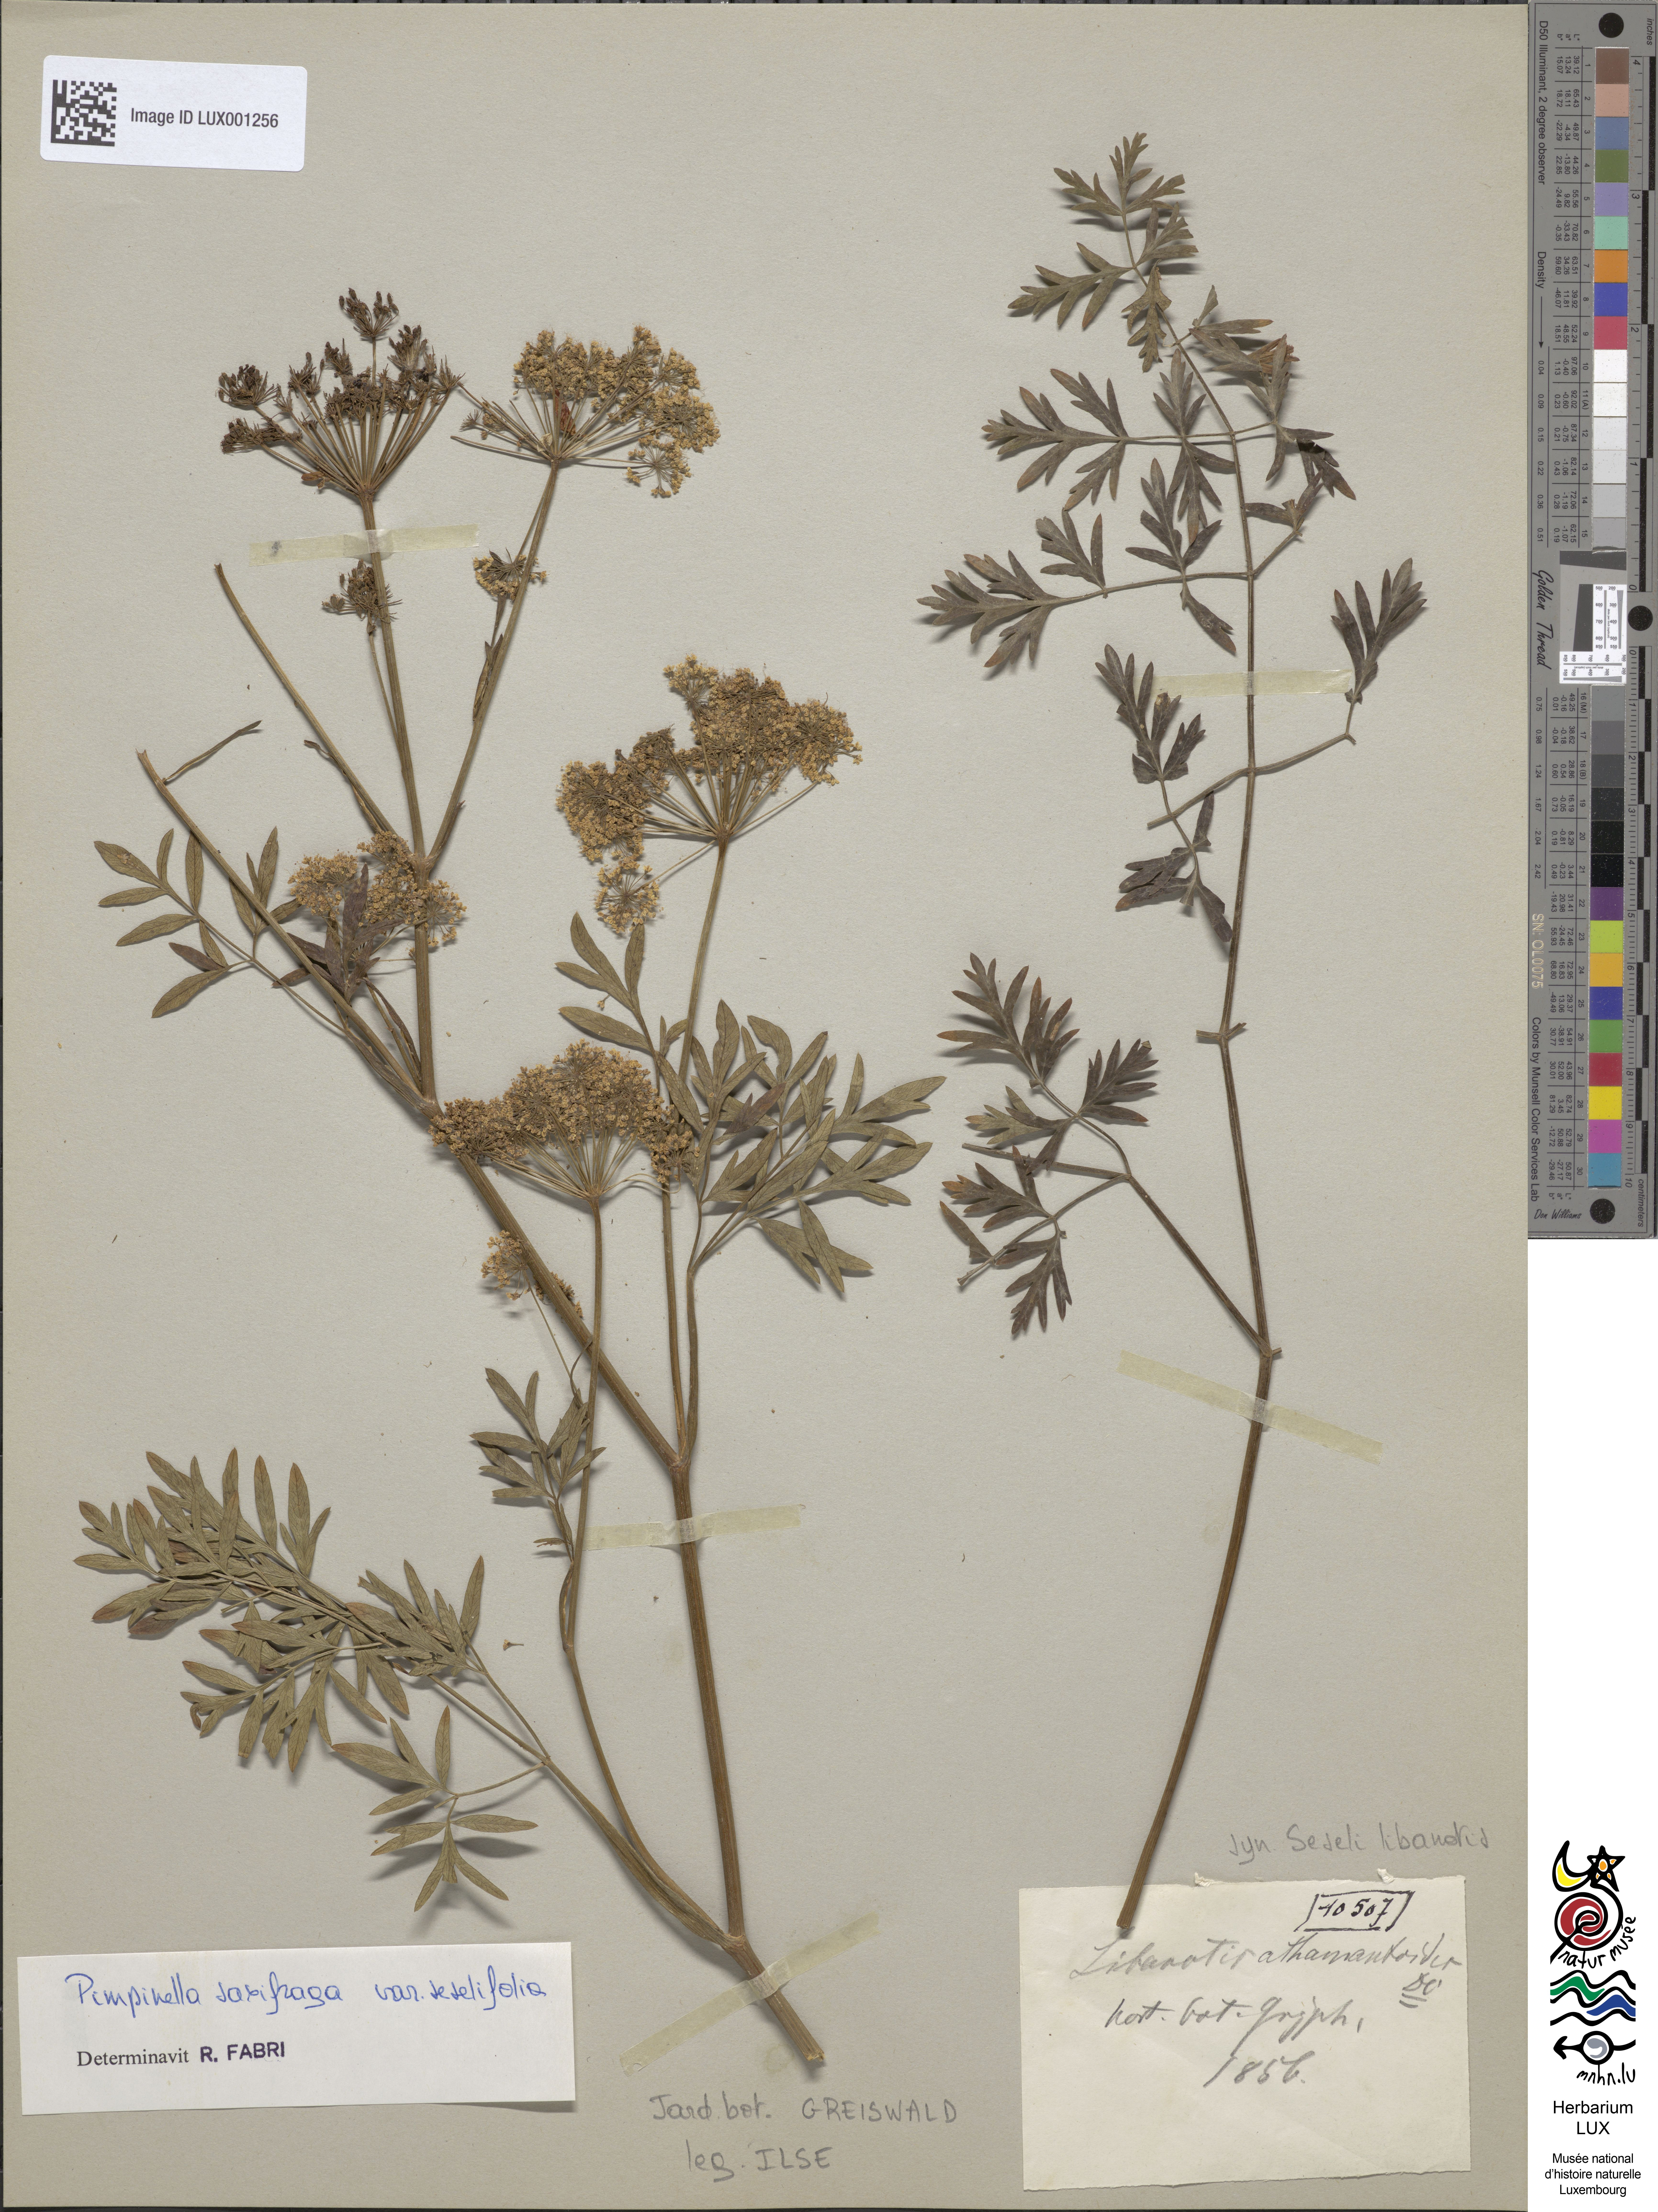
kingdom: Plantae
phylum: Tracheophyta
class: Magnoliopsida
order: Apiales
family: Apiaceae
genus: Seseli
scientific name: Seseli libanotis
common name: Mooncarrot
